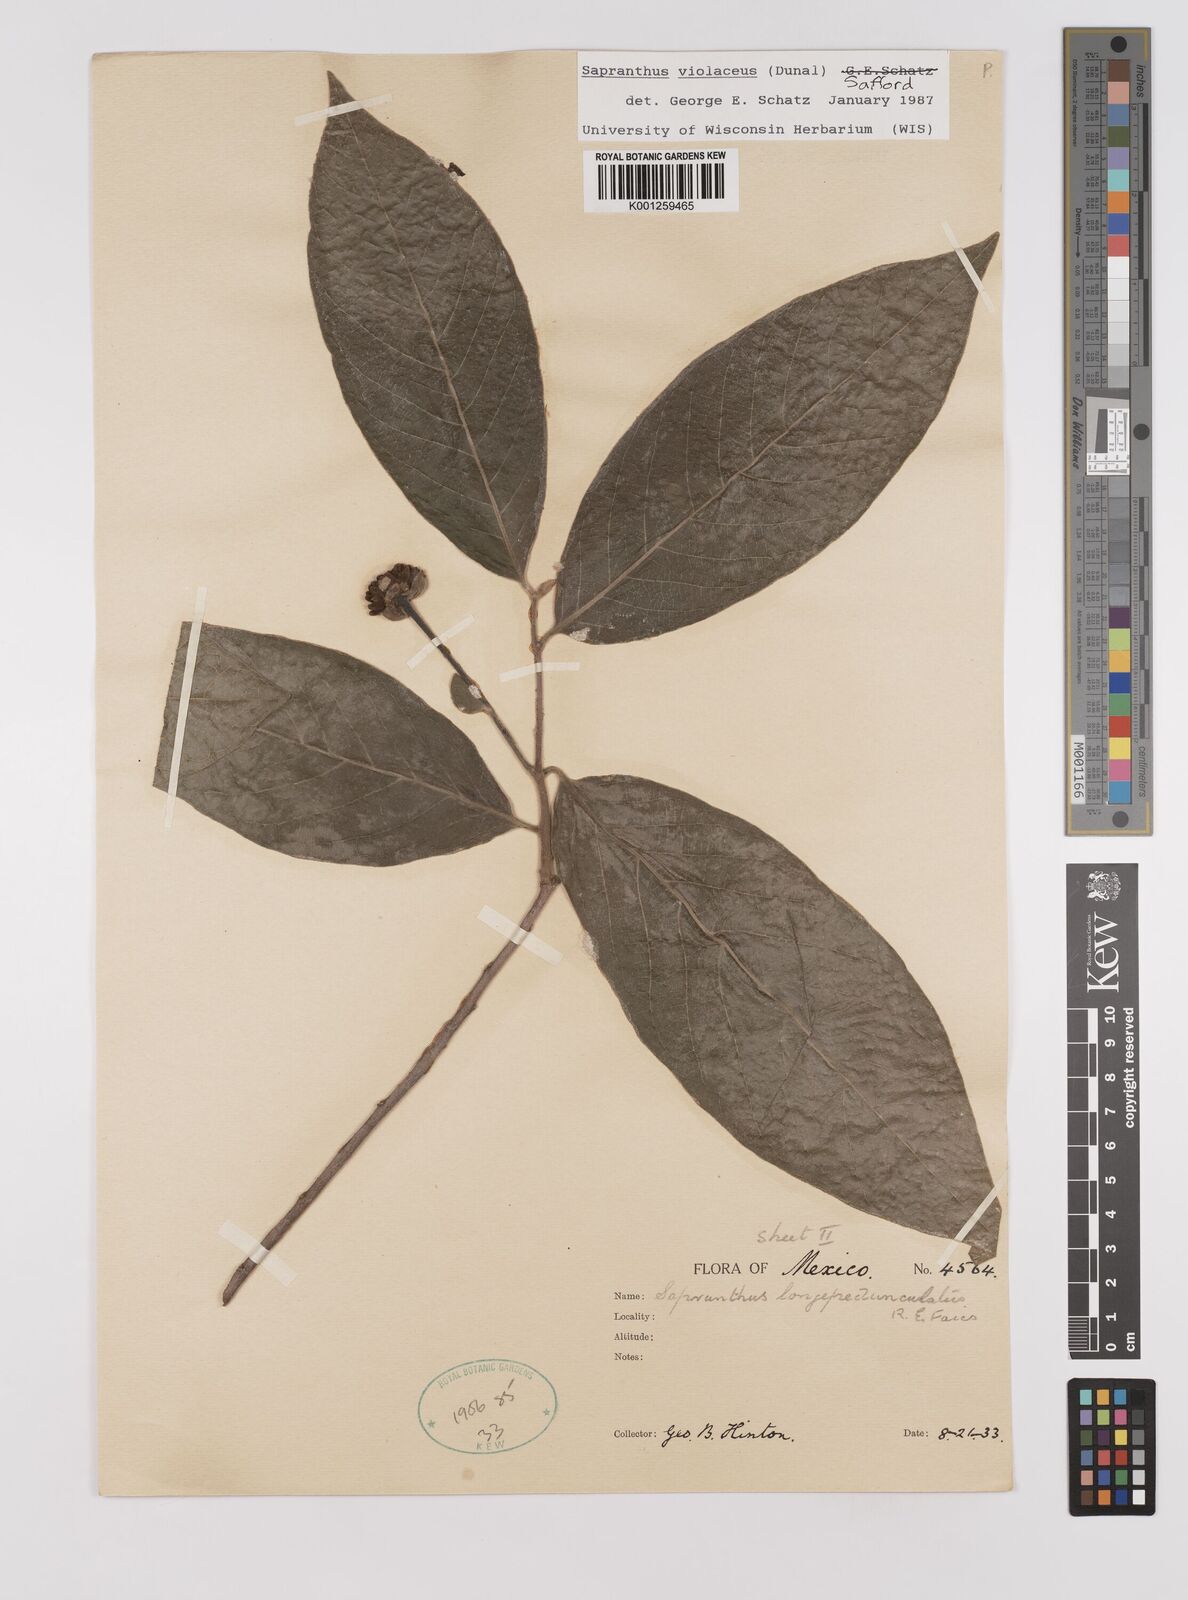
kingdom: Plantae
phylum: Tracheophyta
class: Magnoliopsida
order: Magnoliales
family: Annonaceae
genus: Sapranthus
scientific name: Sapranthus
